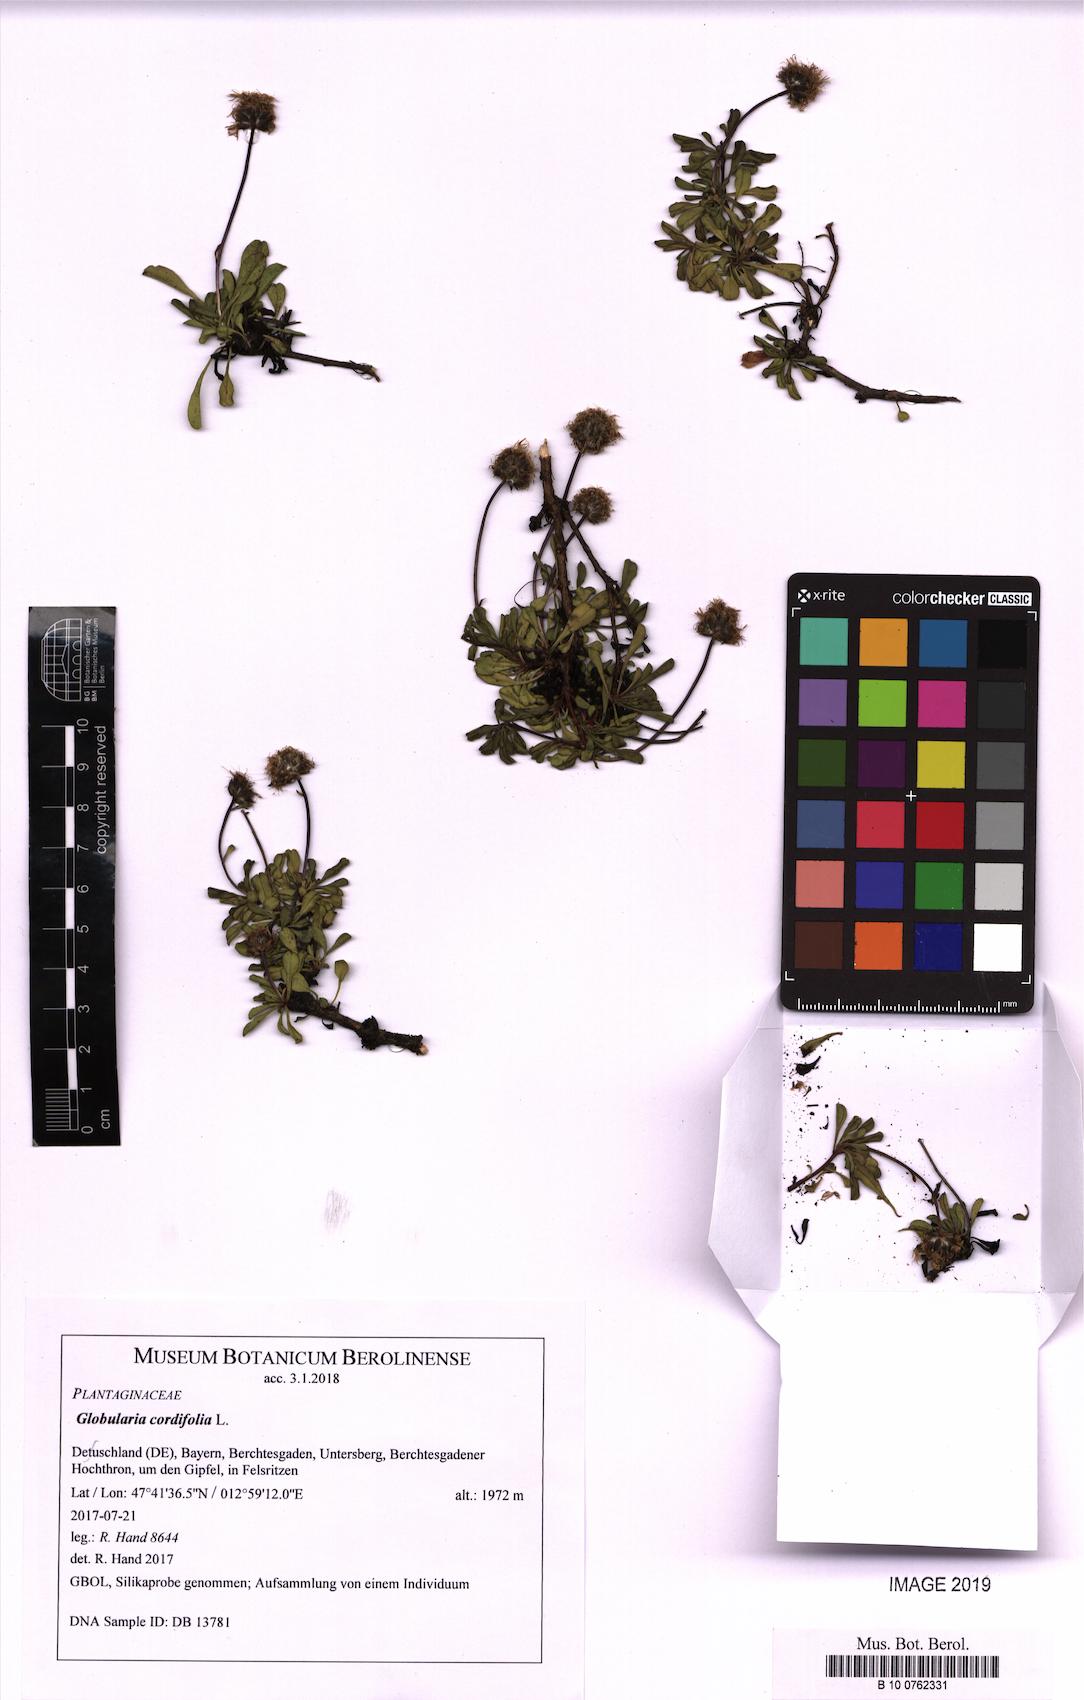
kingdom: Plantae
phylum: Tracheophyta
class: Magnoliopsida
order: Lamiales
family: Plantaginaceae
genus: Globularia
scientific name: Globularia cordifolia
